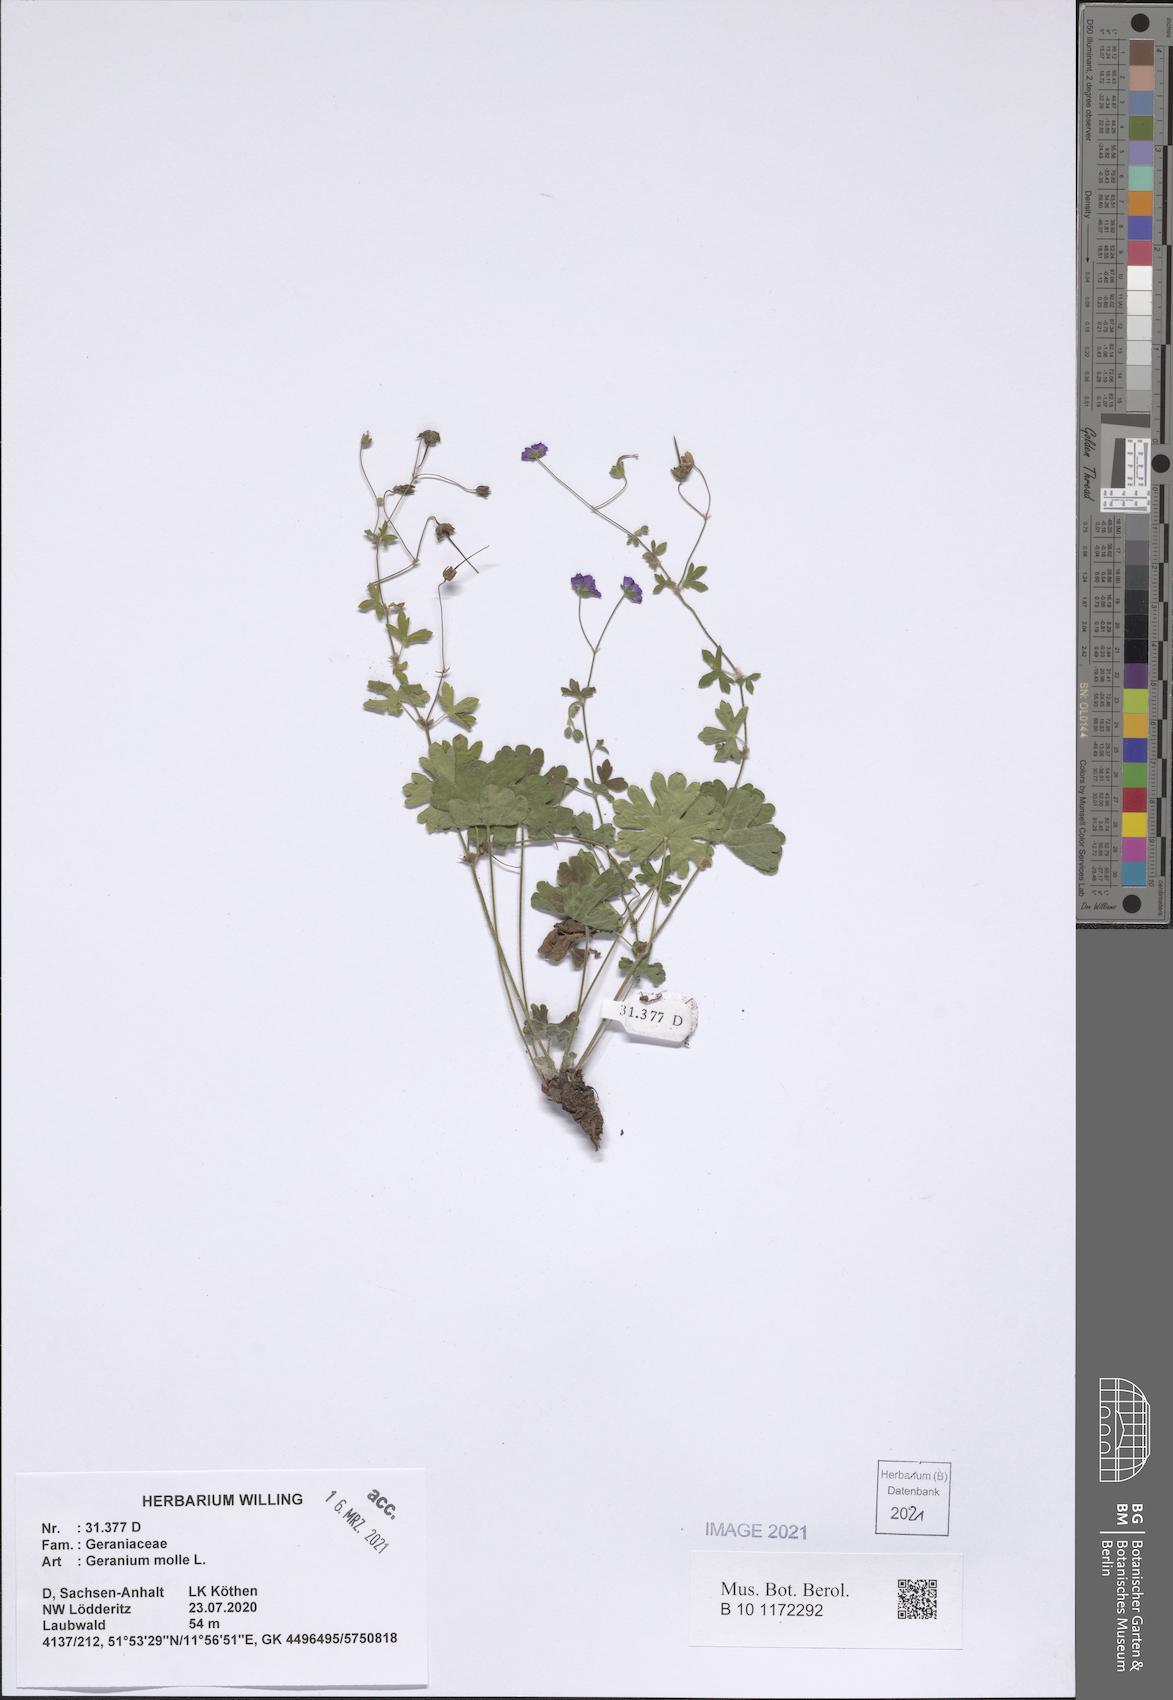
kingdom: Plantae
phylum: Tracheophyta
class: Magnoliopsida
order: Geraniales
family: Geraniaceae
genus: Geranium
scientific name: Geranium molle
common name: Dove's-foot crane's-bill
